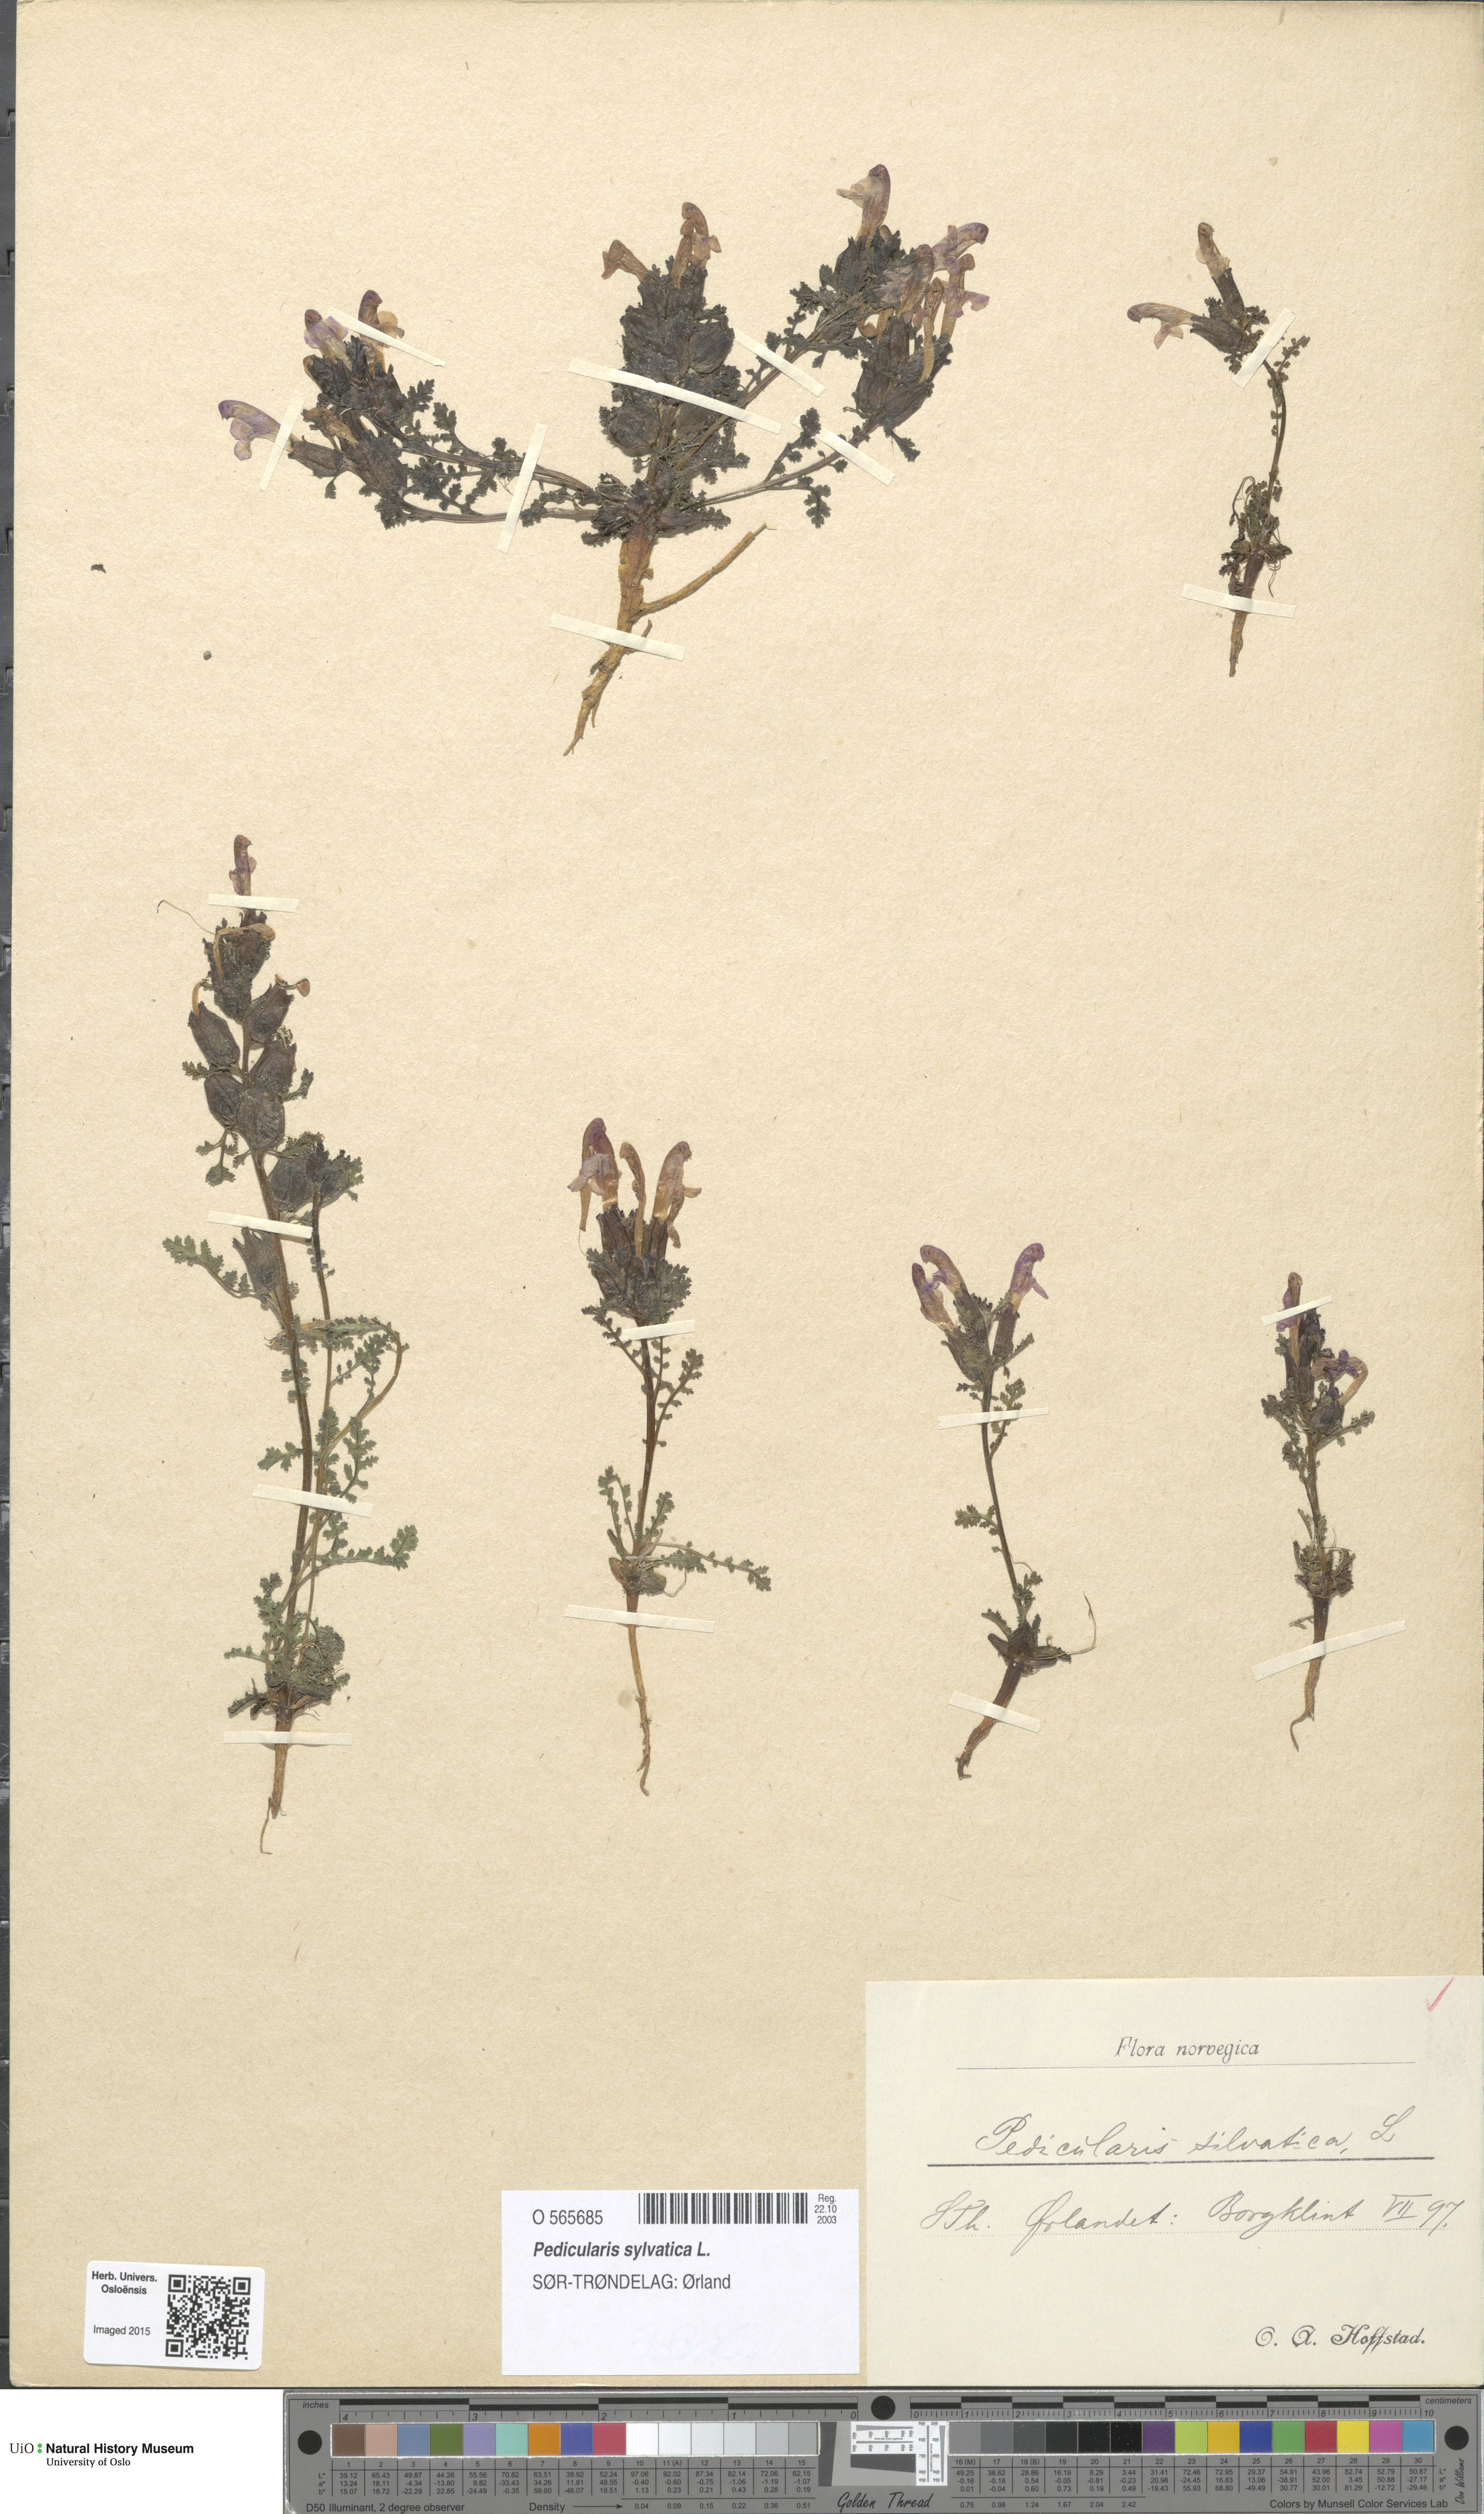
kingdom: Plantae
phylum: Tracheophyta
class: Magnoliopsida
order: Lamiales
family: Orobanchaceae
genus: Pedicularis
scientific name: Pedicularis sylvatica
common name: Lousewort
